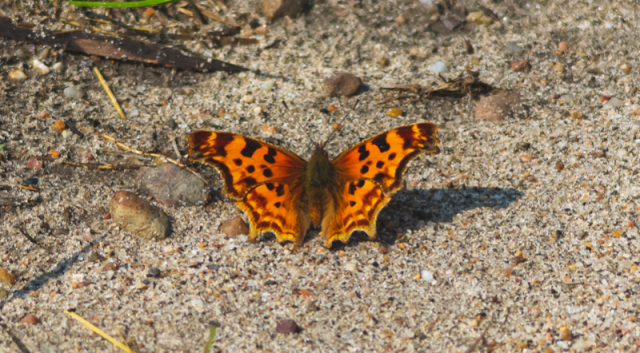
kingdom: Animalia
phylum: Arthropoda
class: Insecta
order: Lepidoptera
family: Nymphalidae
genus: Polygonia
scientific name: Polygonia satyrus
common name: Satyr Comma
